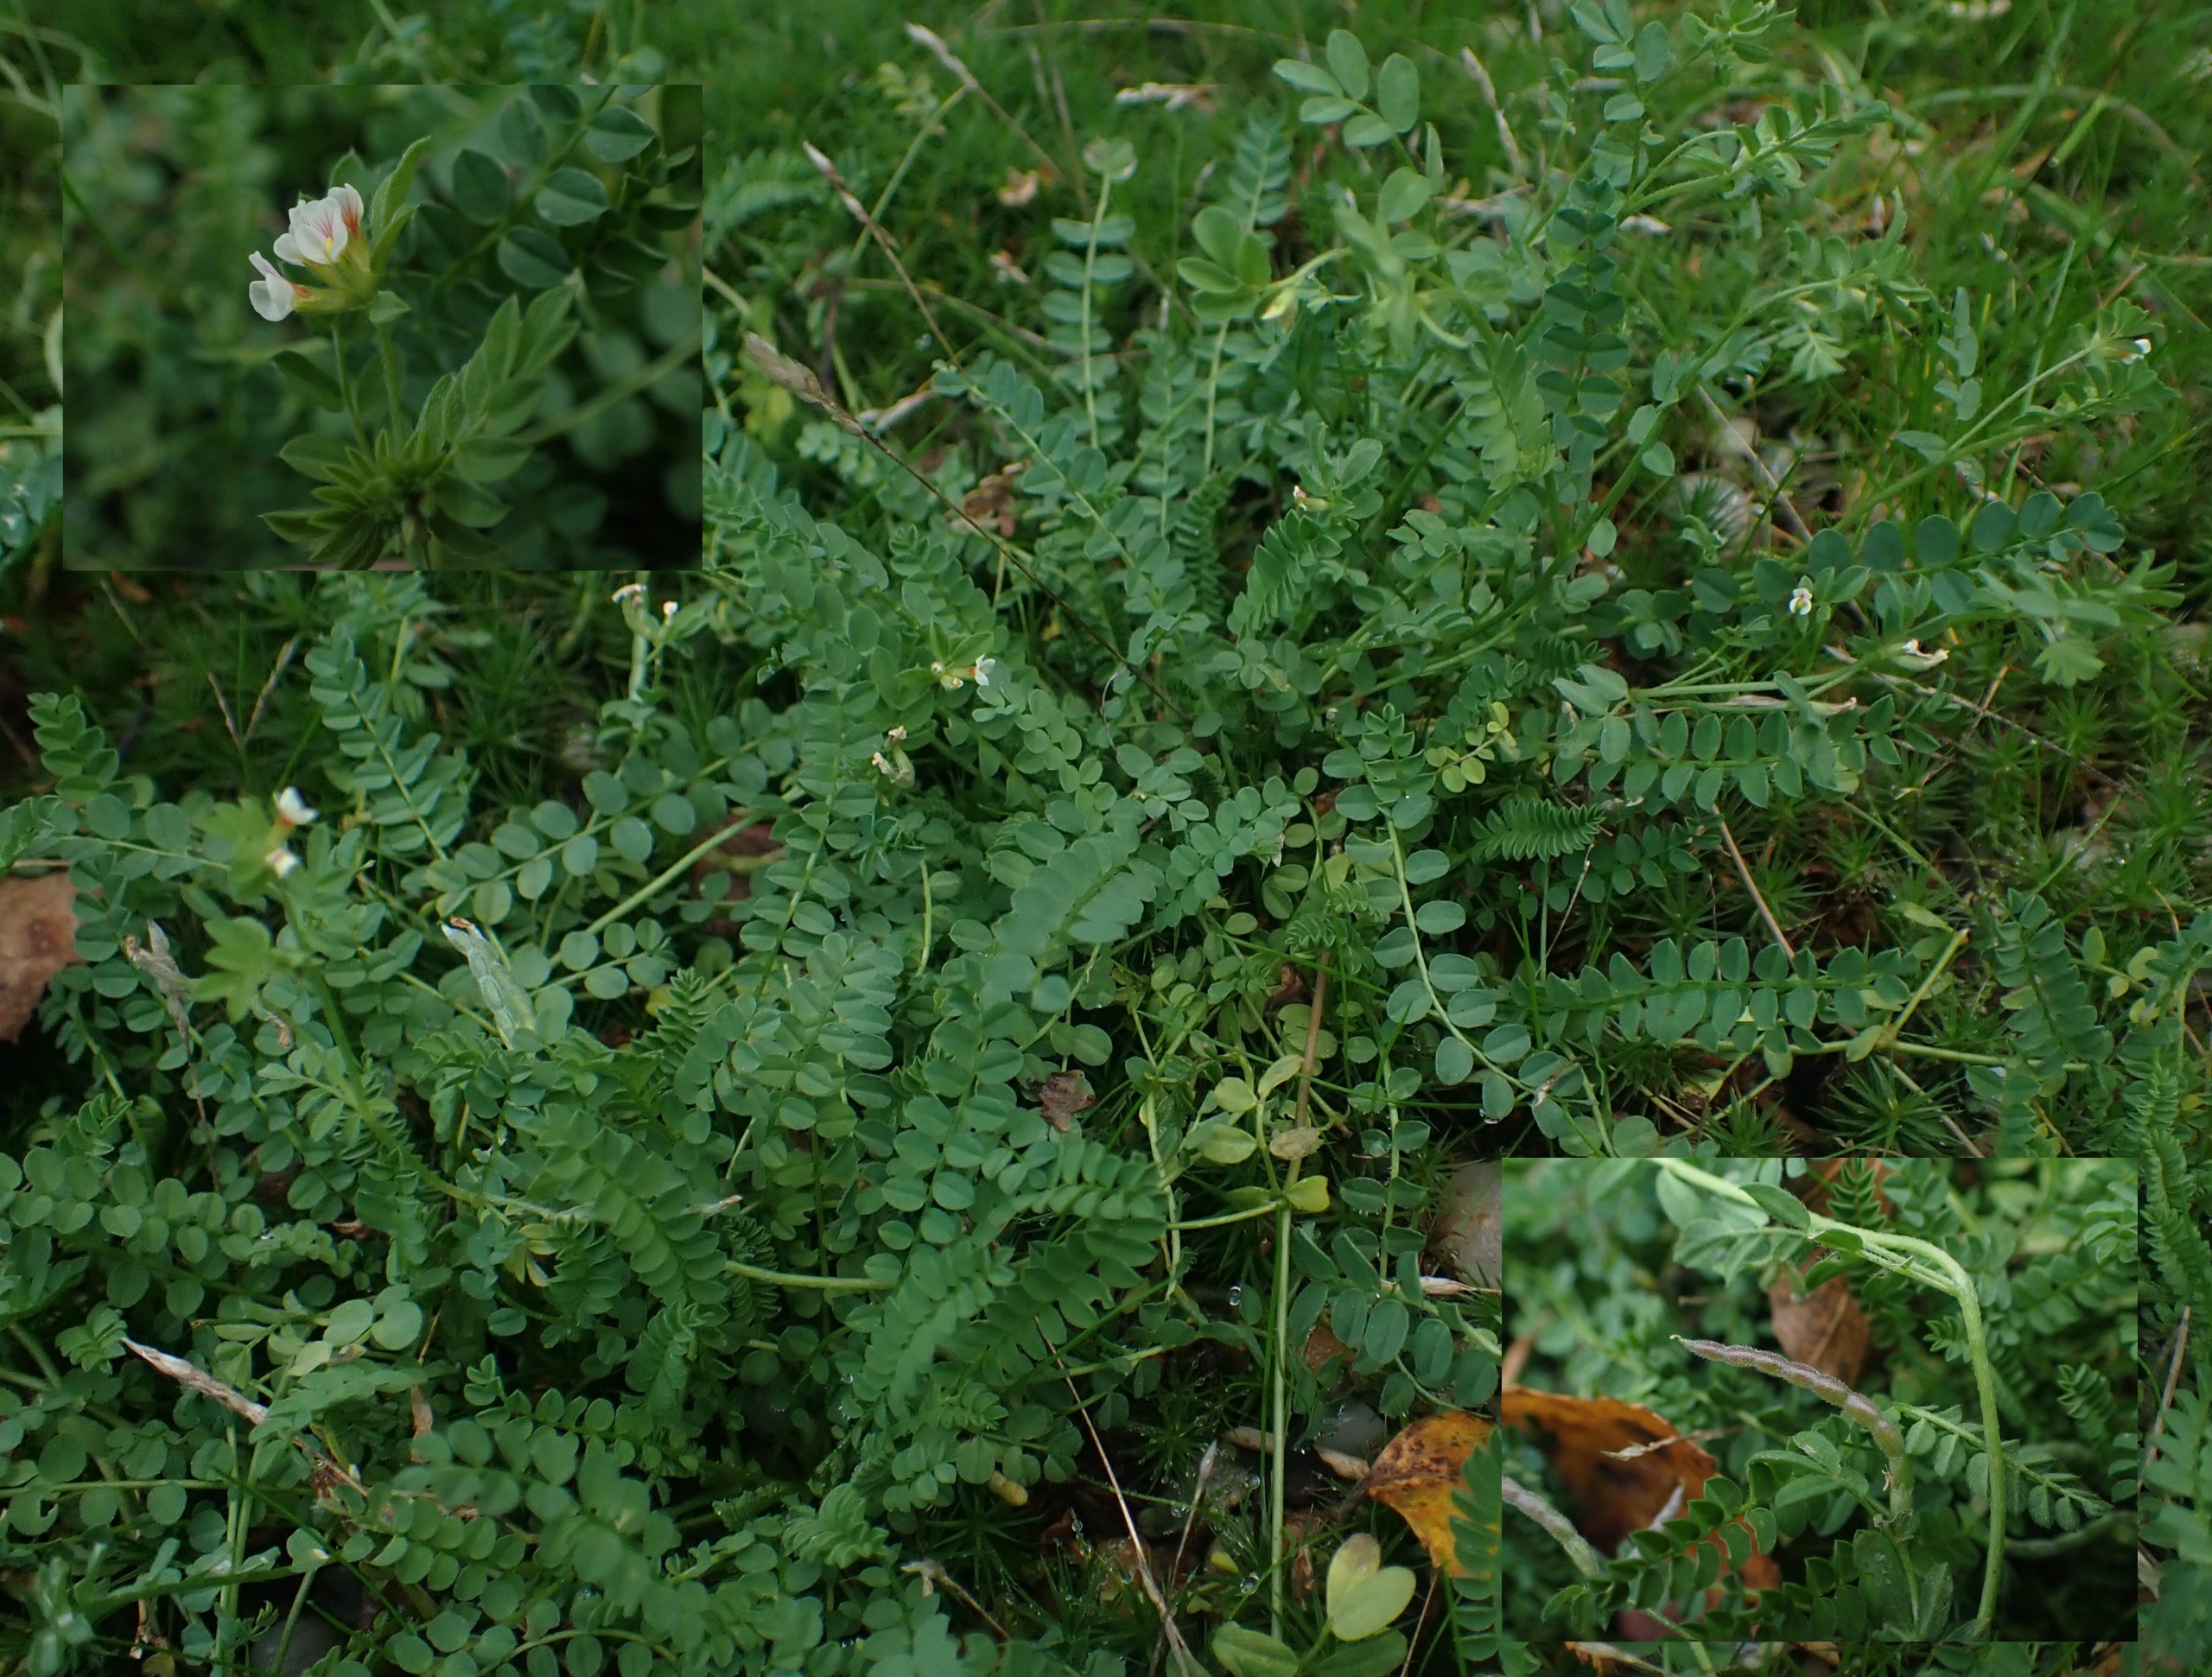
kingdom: Plantae
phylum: Tracheophyta
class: Magnoliopsida
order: Fabales
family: Fabaceae
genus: Ornithopus
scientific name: Ornithopus perpusillus
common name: Liden fugleklo
